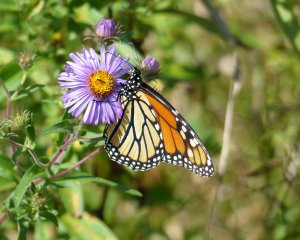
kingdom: Animalia
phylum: Arthropoda
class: Insecta
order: Lepidoptera
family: Nymphalidae
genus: Danaus
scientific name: Danaus plexippus
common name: Monarch
